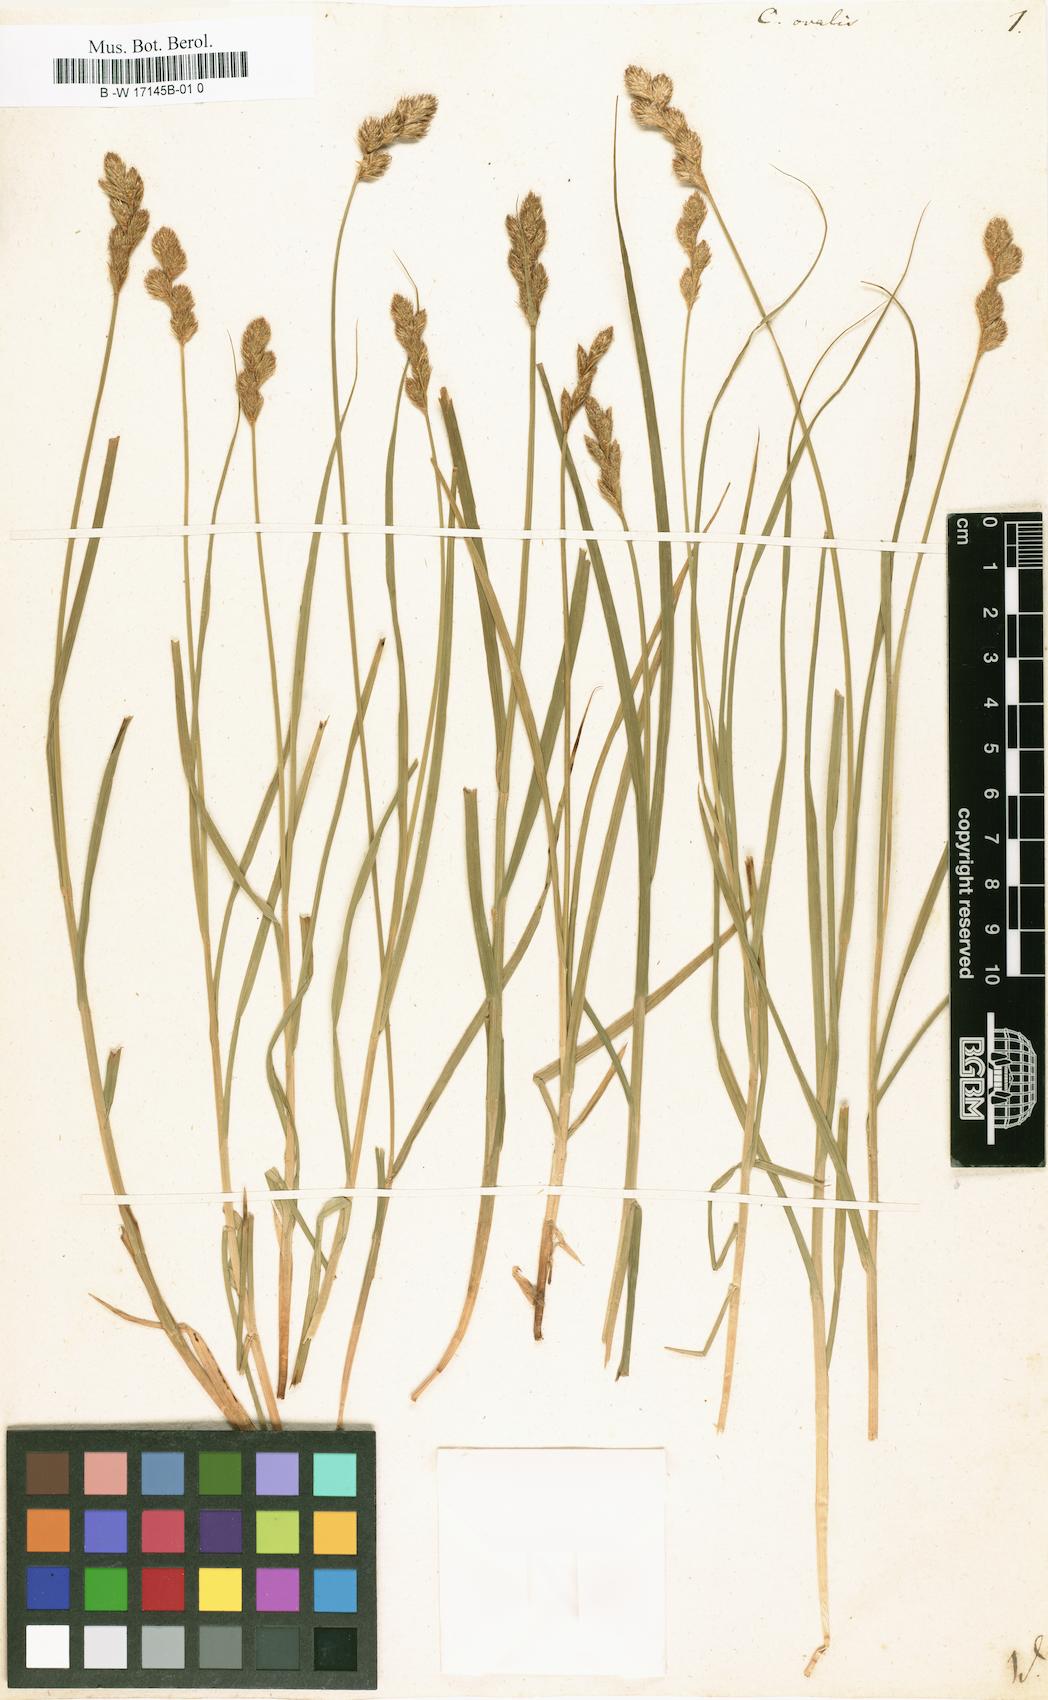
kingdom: Plantae
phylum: Tracheophyta
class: Liliopsida
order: Poales
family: Cyperaceae
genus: Carex
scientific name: Carex leporina
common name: Oval sedge
